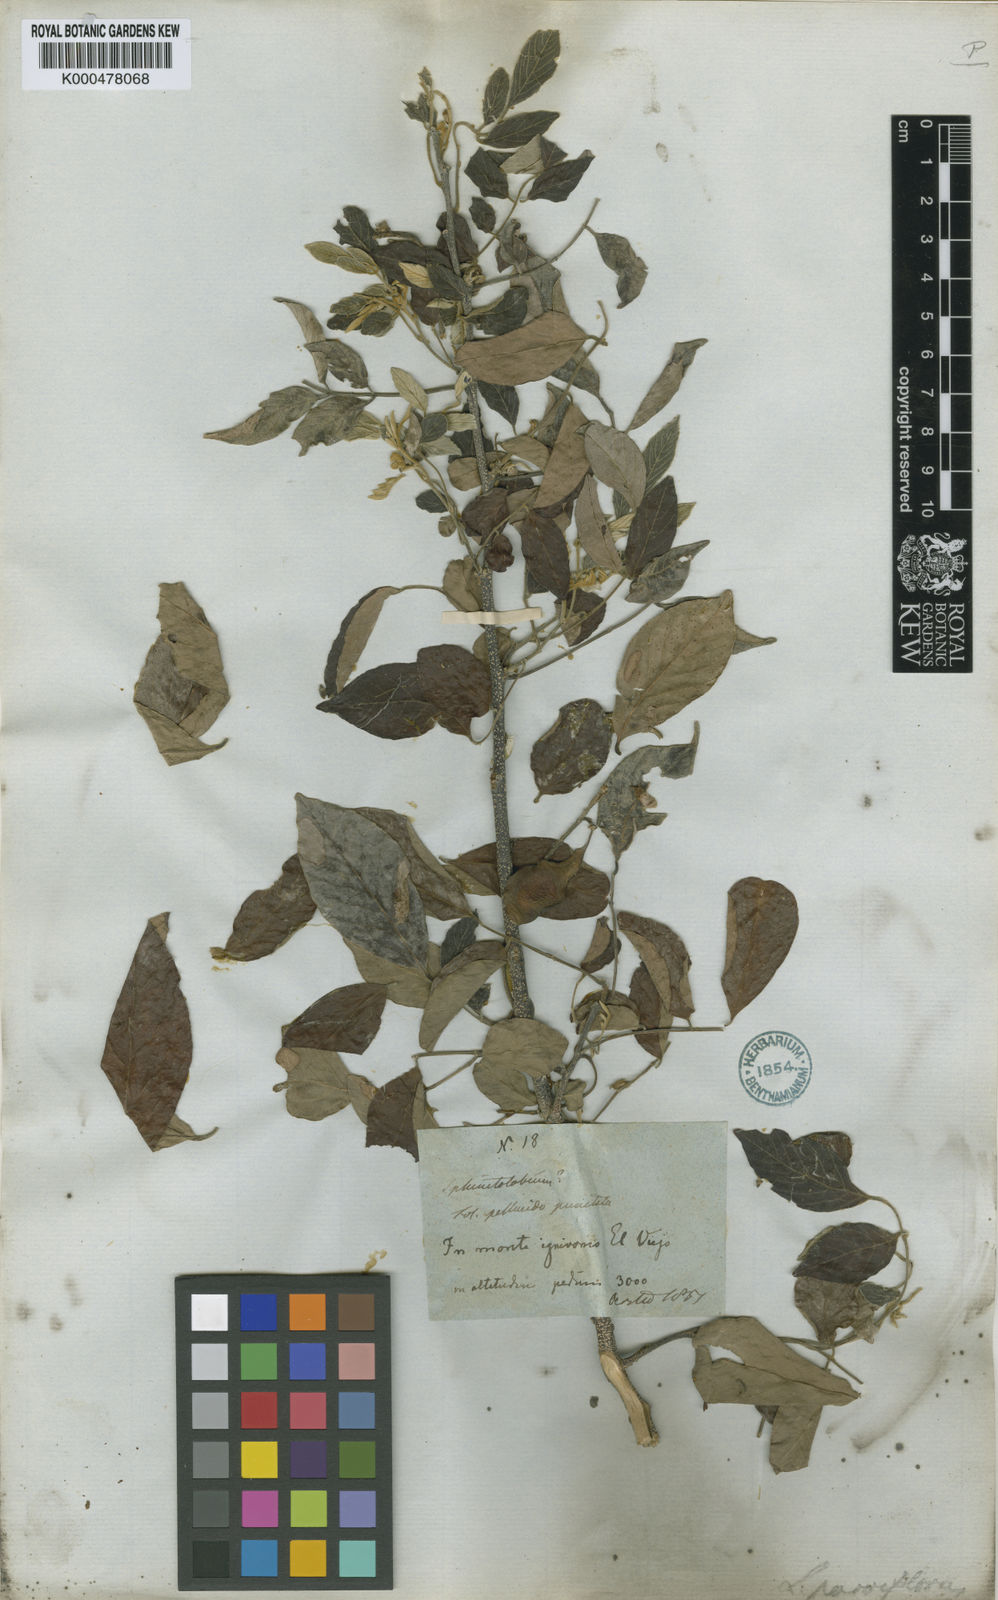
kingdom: Plantae
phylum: Tracheophyta
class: Magnoliopsida
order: Fabales
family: Fabaceae
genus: Lonchocarpus
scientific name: Lonchocarpus parviflorus
